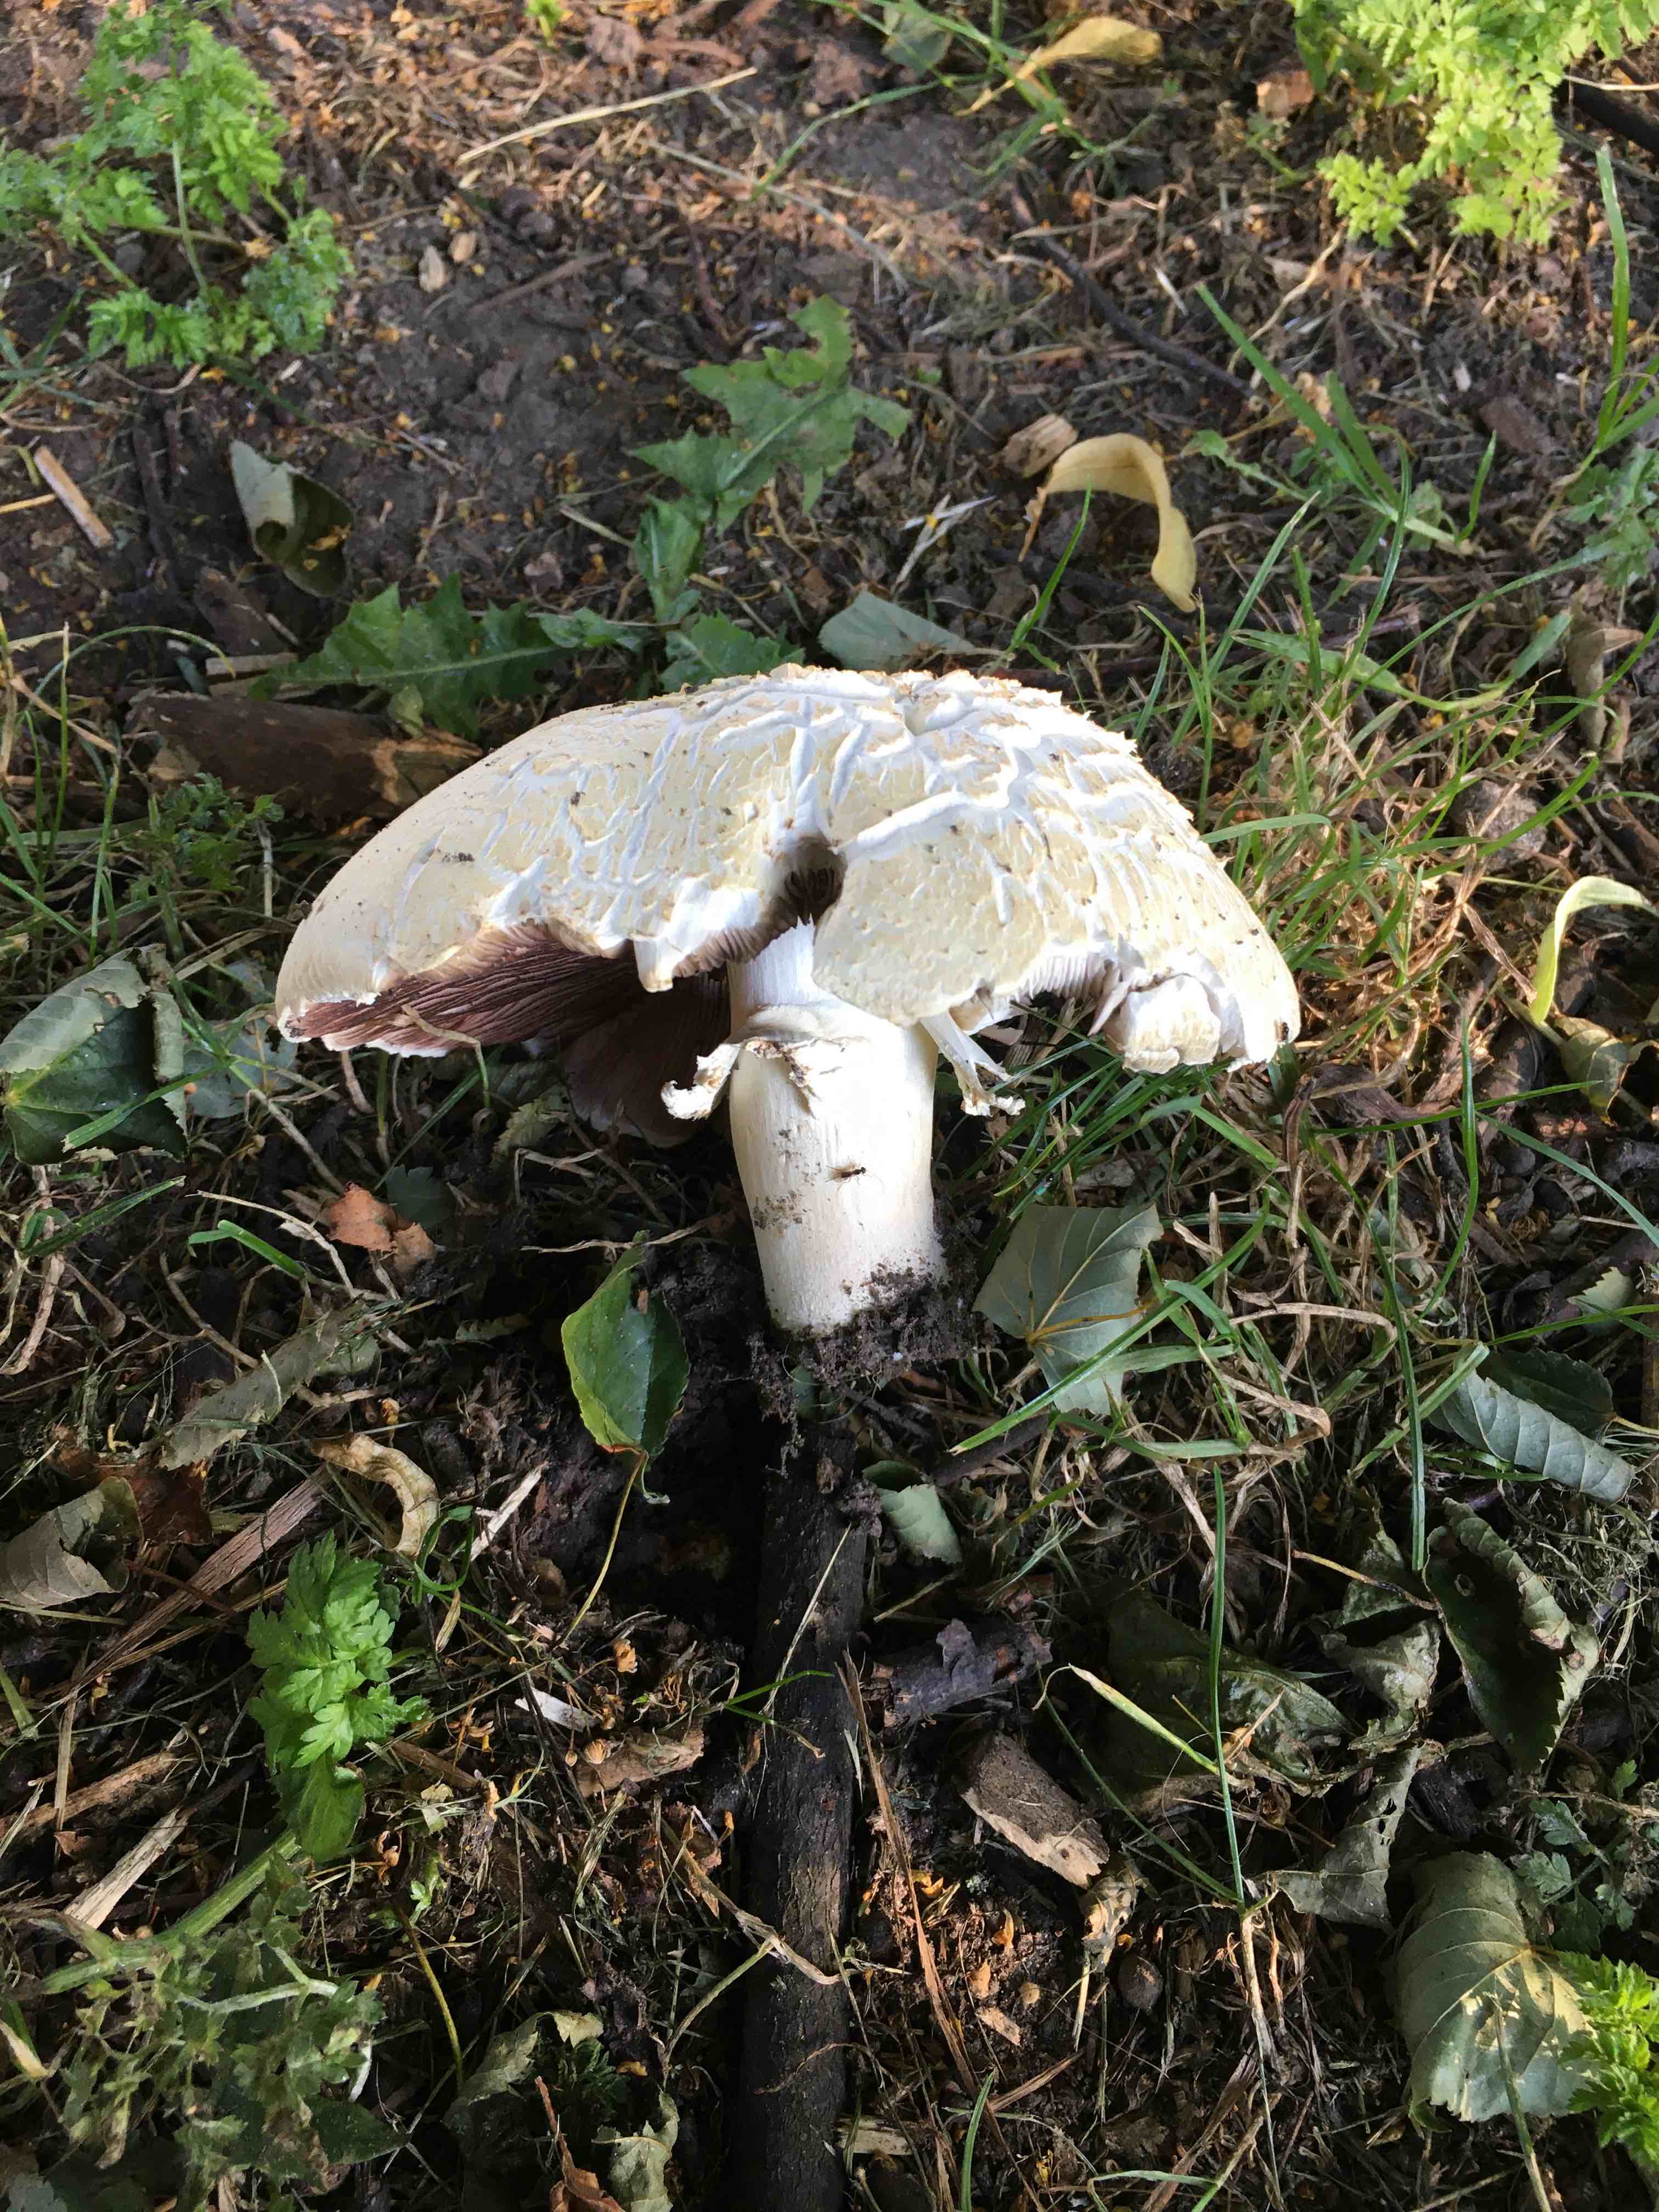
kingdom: Fungi
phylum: Basidiomycota
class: Agaricomycetes
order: Agaricales
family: Agaricaceae
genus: Agaricus
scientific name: Agaricus arvensis
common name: ager-champignon
